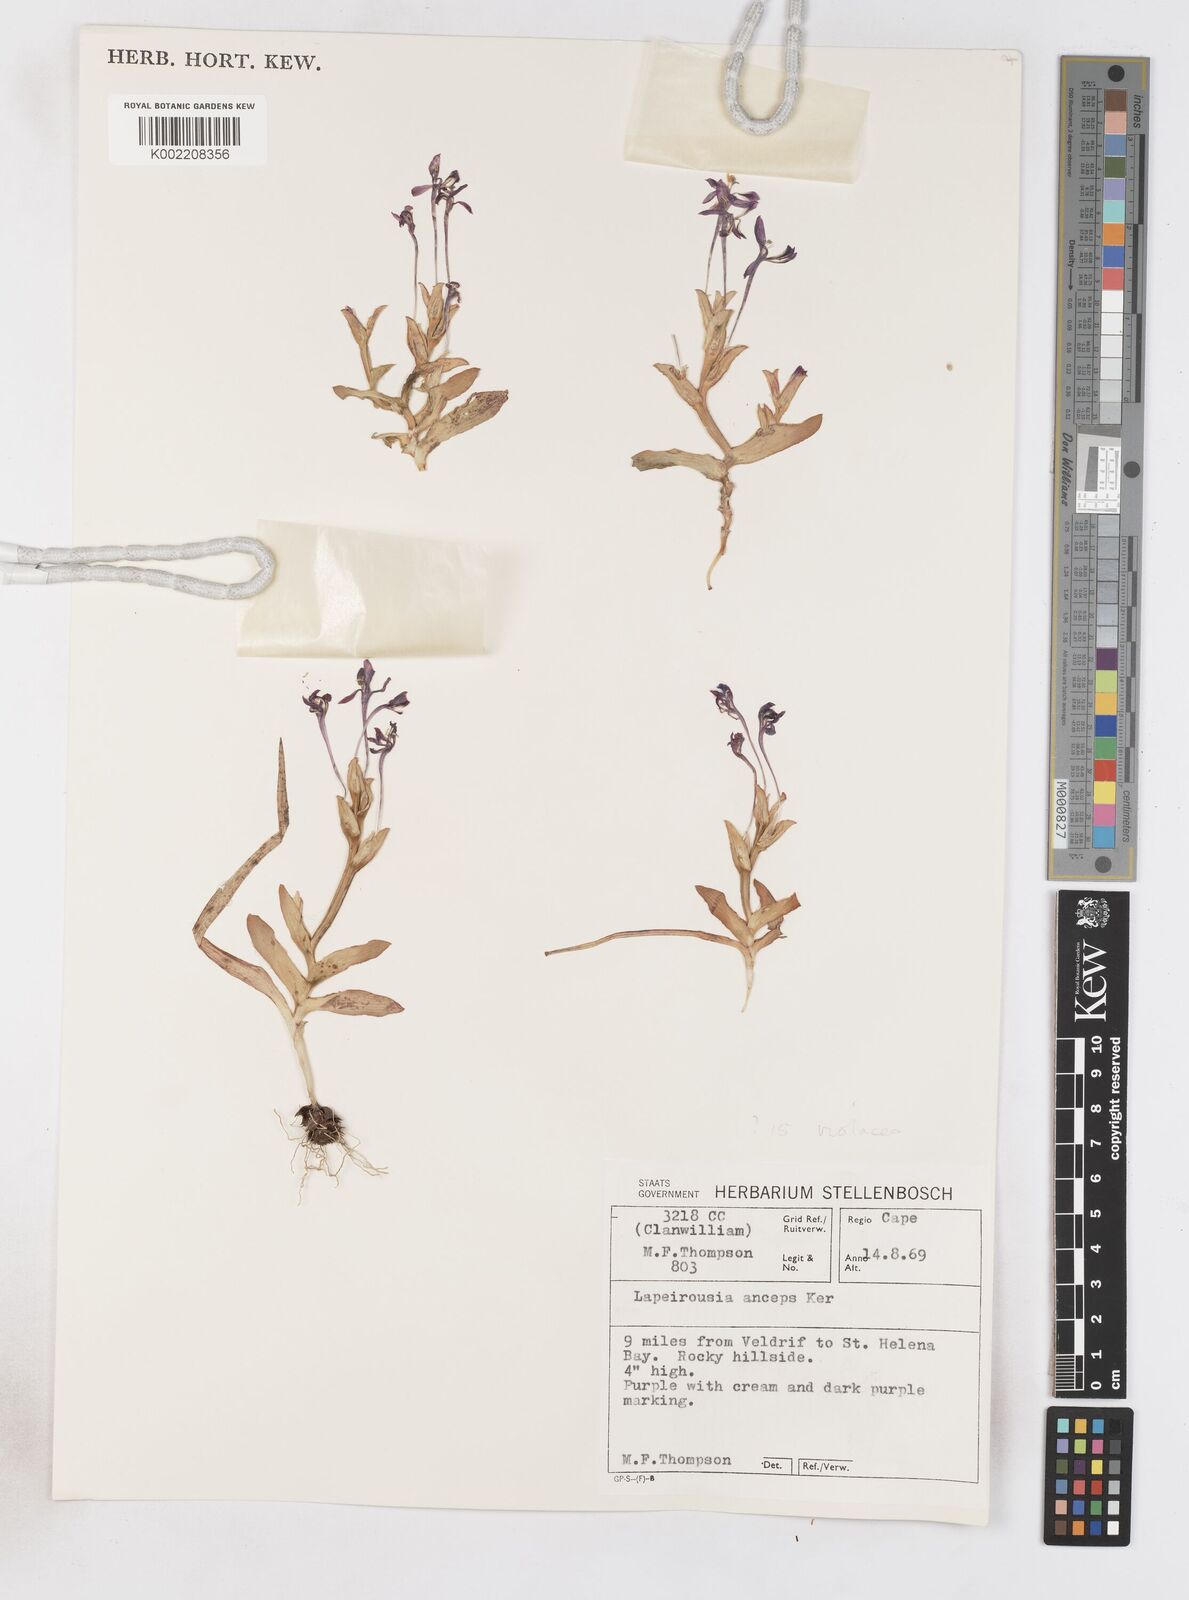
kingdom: Plantae
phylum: Tracheophyta
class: Liliopsida
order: Asparagales
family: Iridaceae
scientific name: Iridaceae
